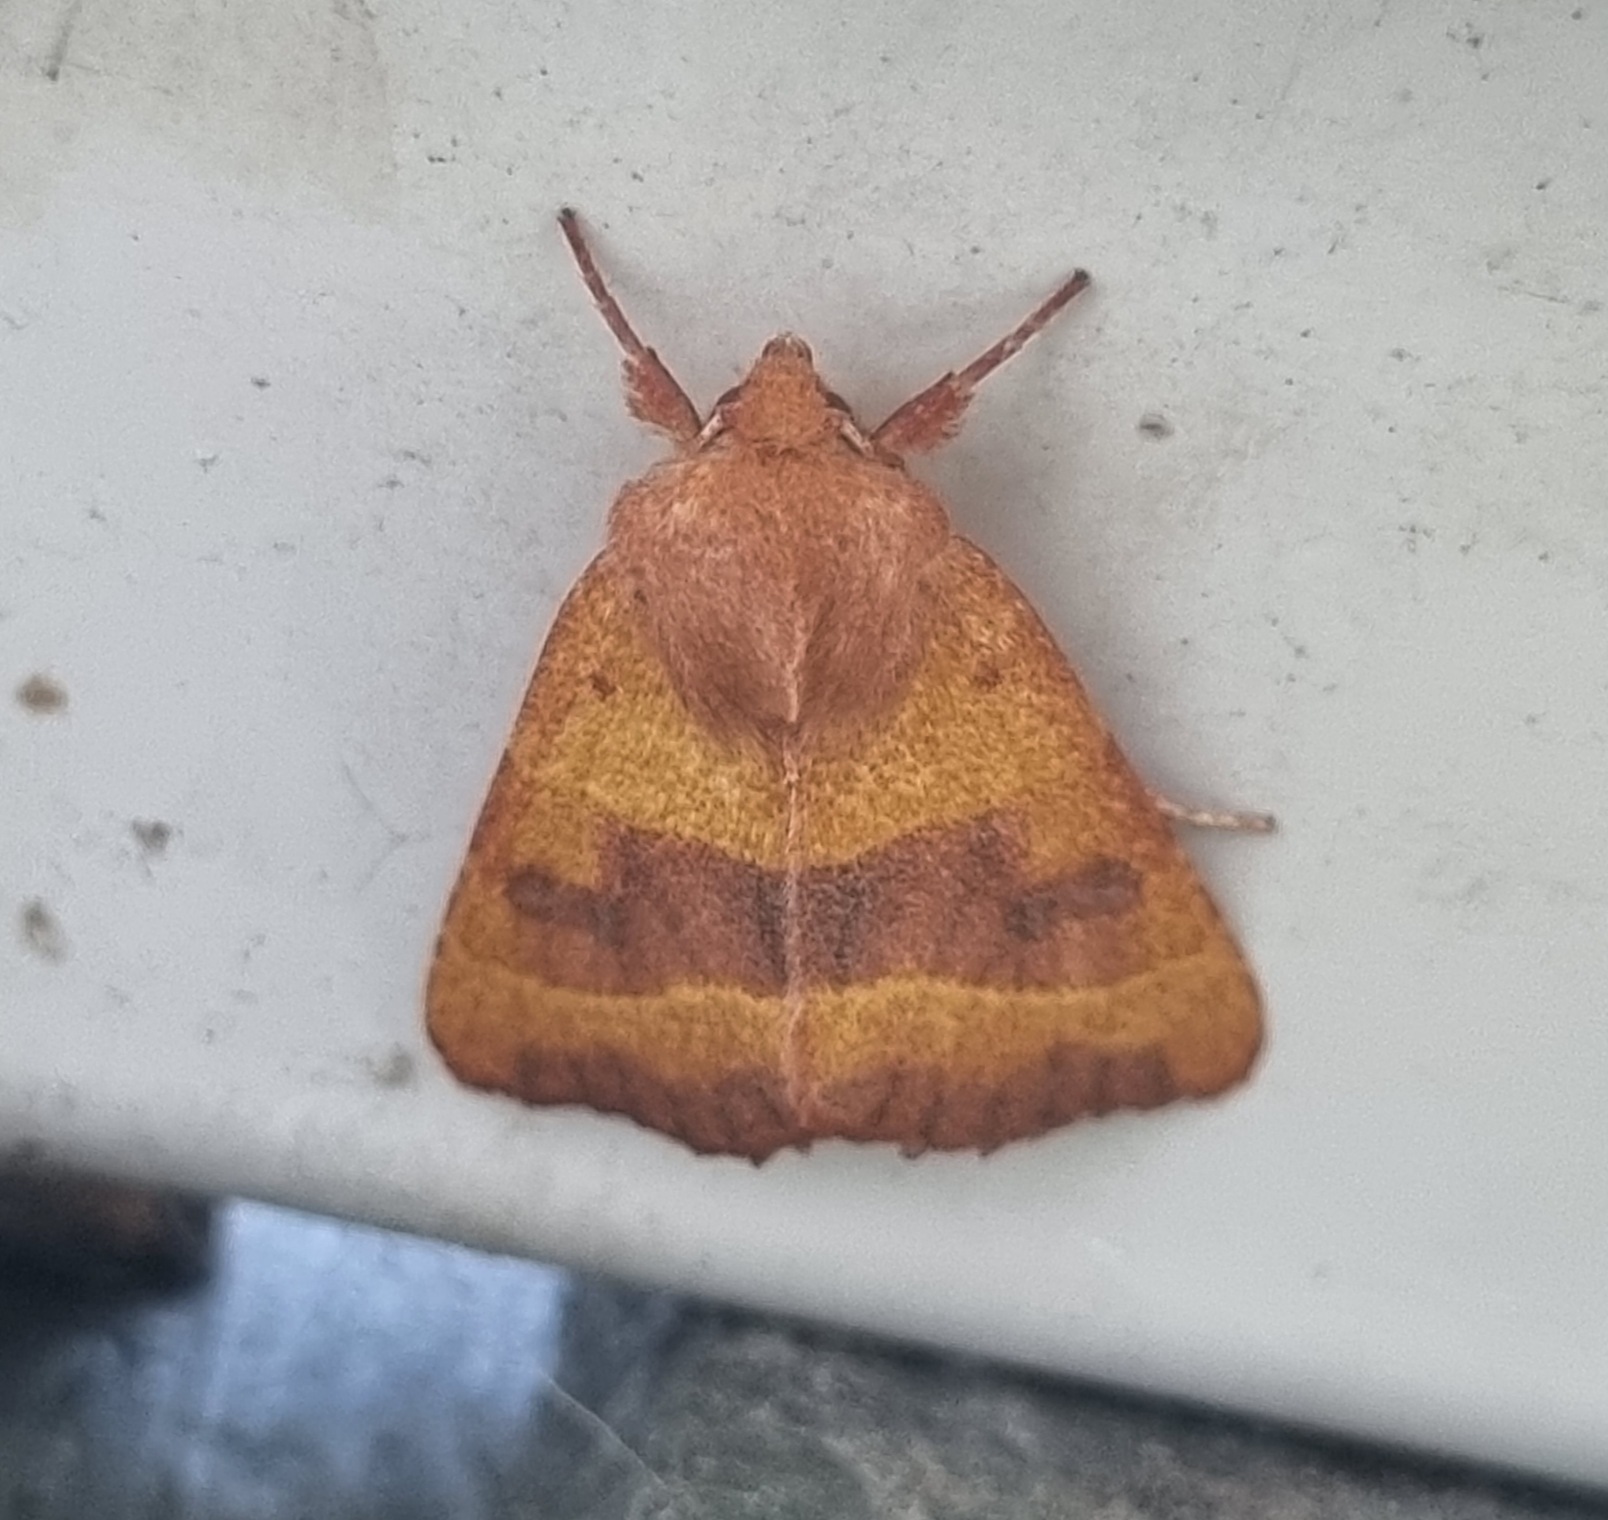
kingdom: Animalia
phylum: Arthropoda
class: Insecta
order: Lepidoptera
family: Noctuidae
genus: Atethmia
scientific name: Atethmia centrago
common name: Aske-septemberugle
